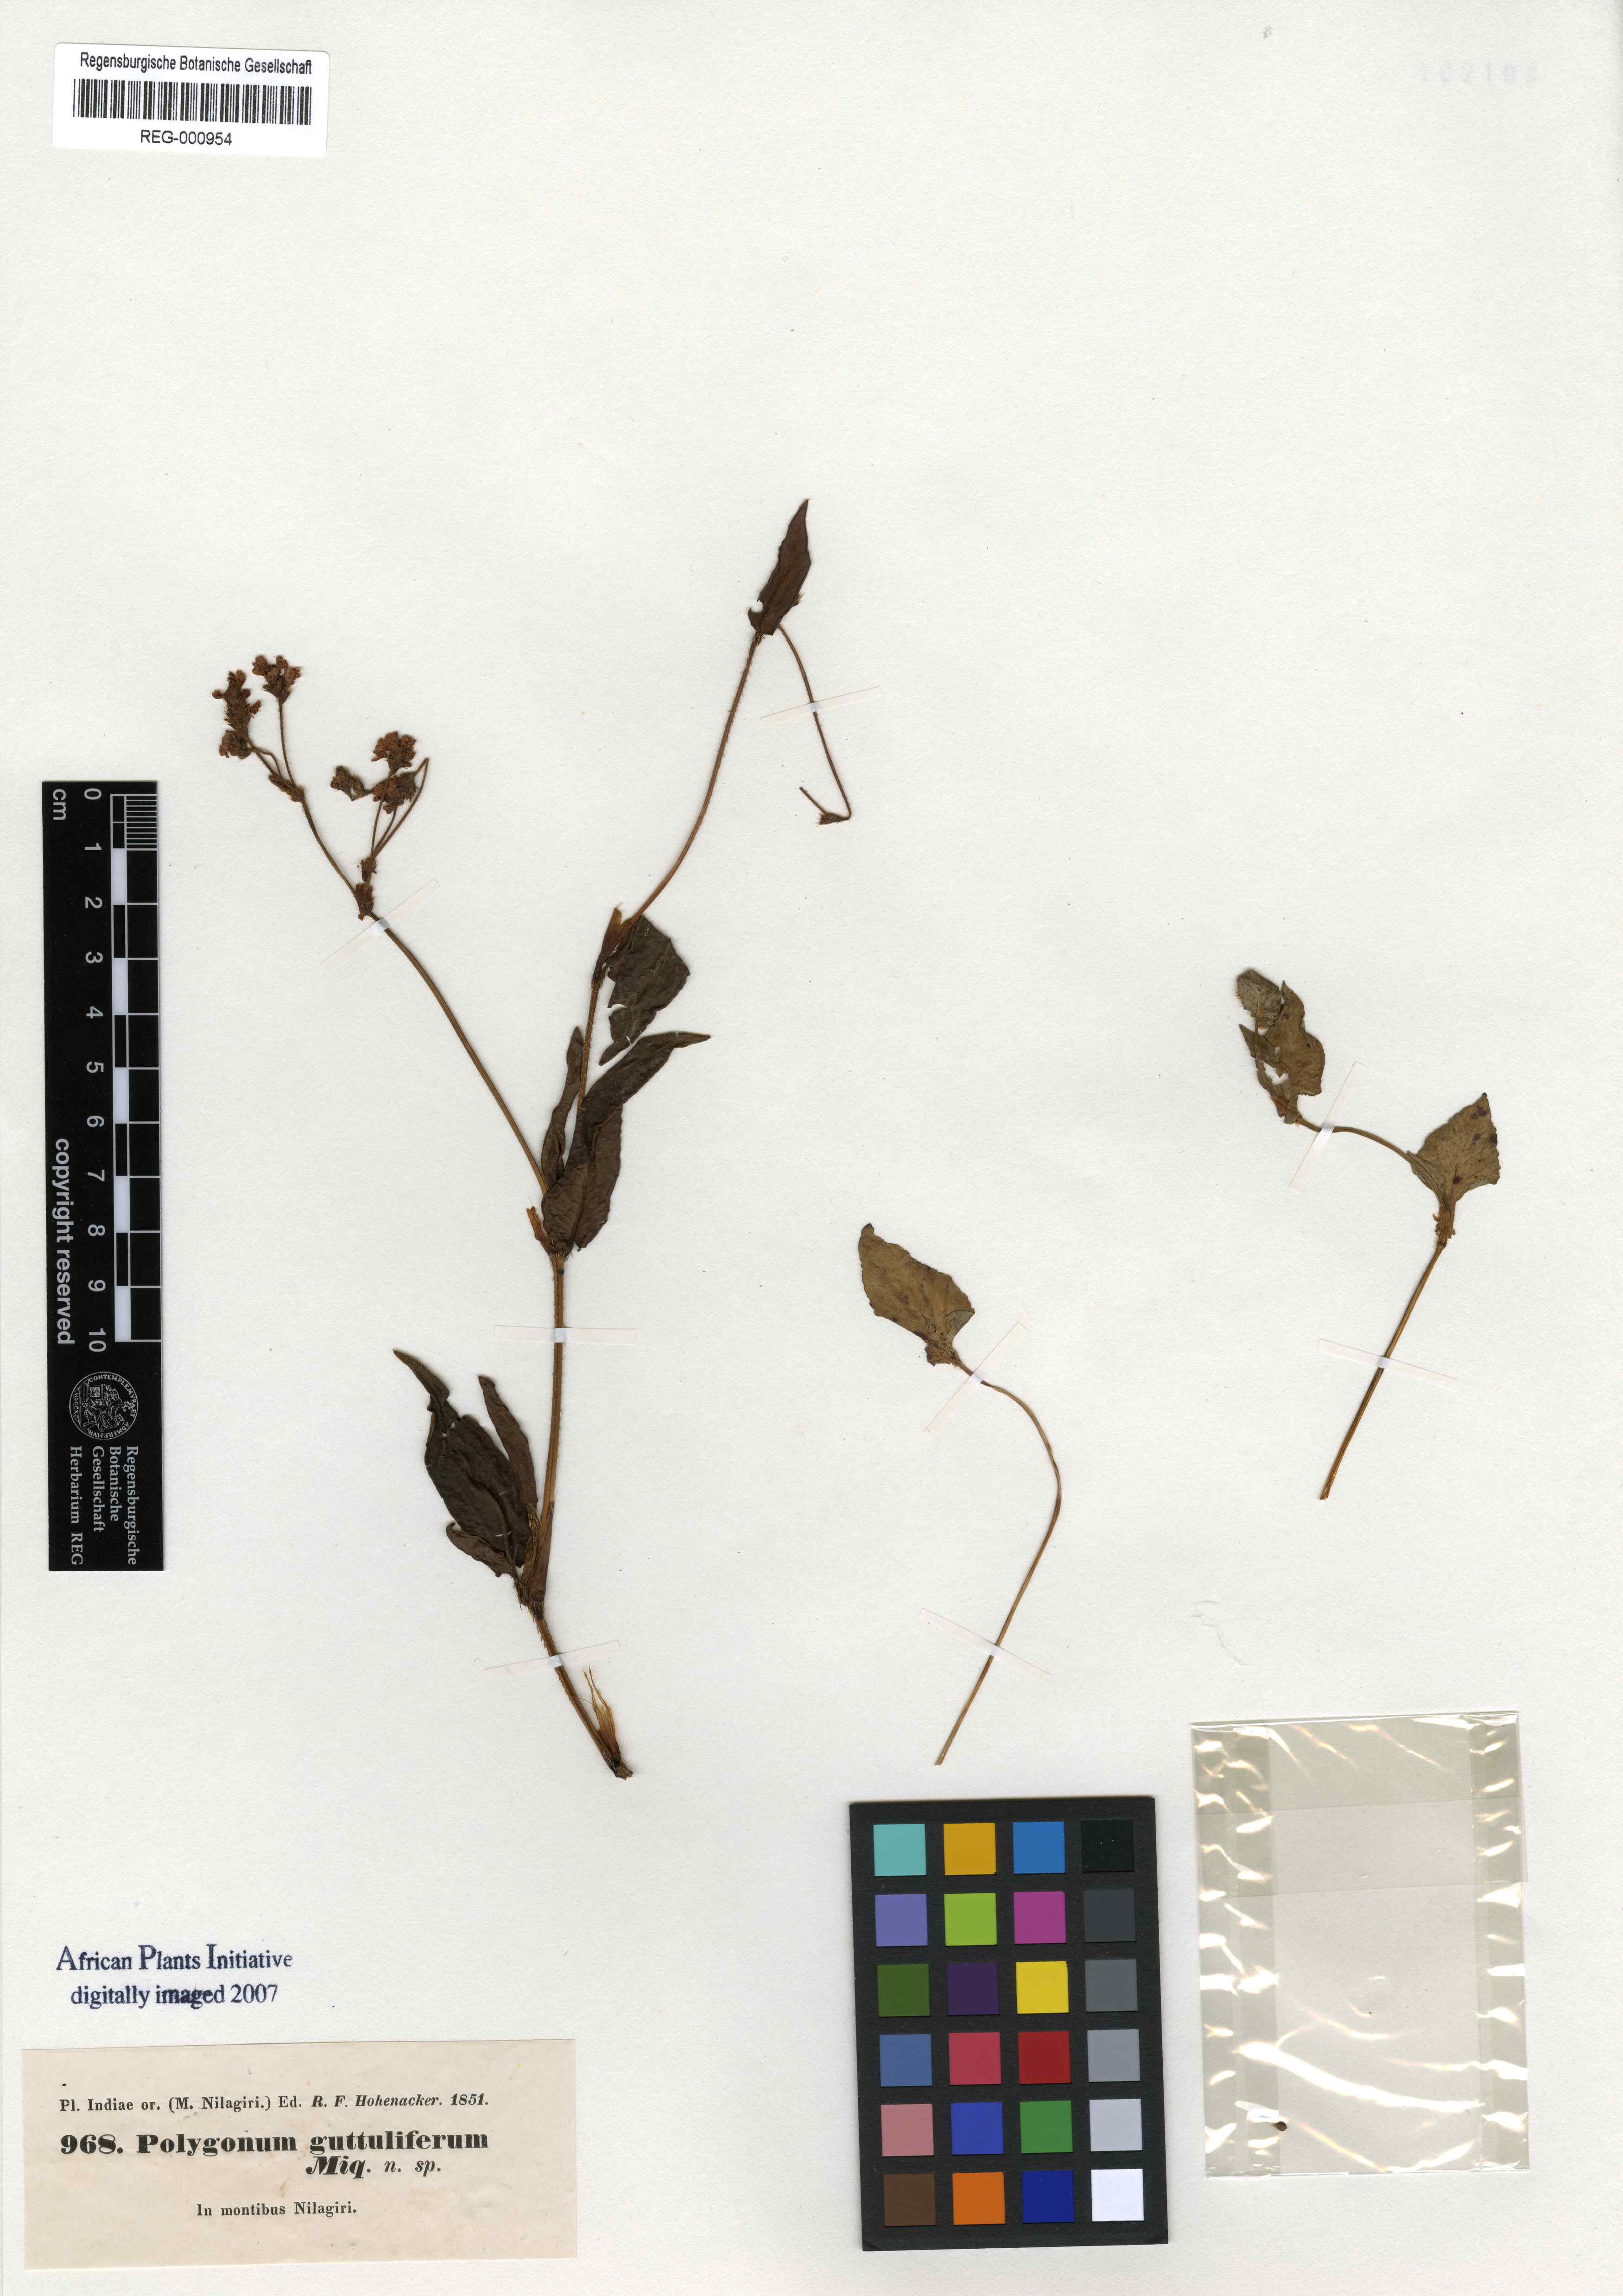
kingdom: Plantae
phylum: Tracheophyta
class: Magnoliopsida
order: Caryophyllales
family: Polygonaceae
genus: Persicaria
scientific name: Persicaria nepalensis
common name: Nepal persicaria
